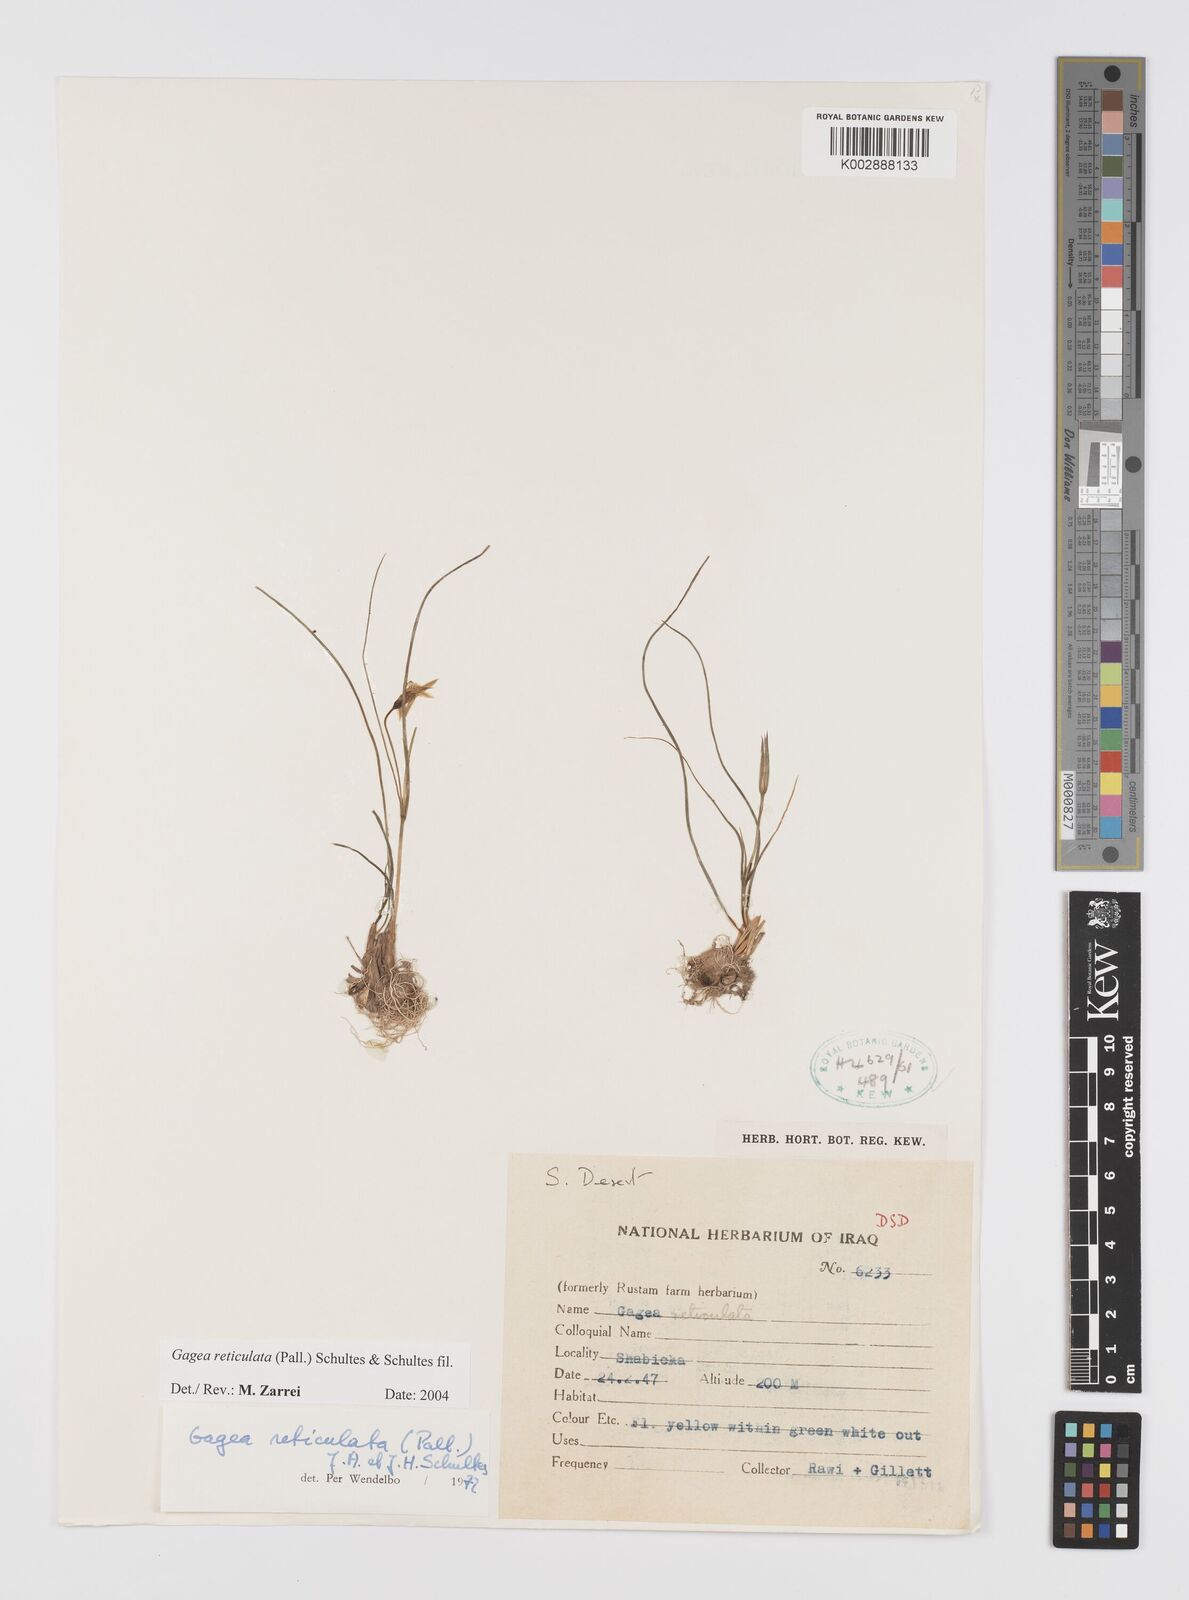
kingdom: Plantae
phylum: Tracheophyta
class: Liliopsida
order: Liliales
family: Liliaceae
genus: Gagea
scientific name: Gagea reticulata
